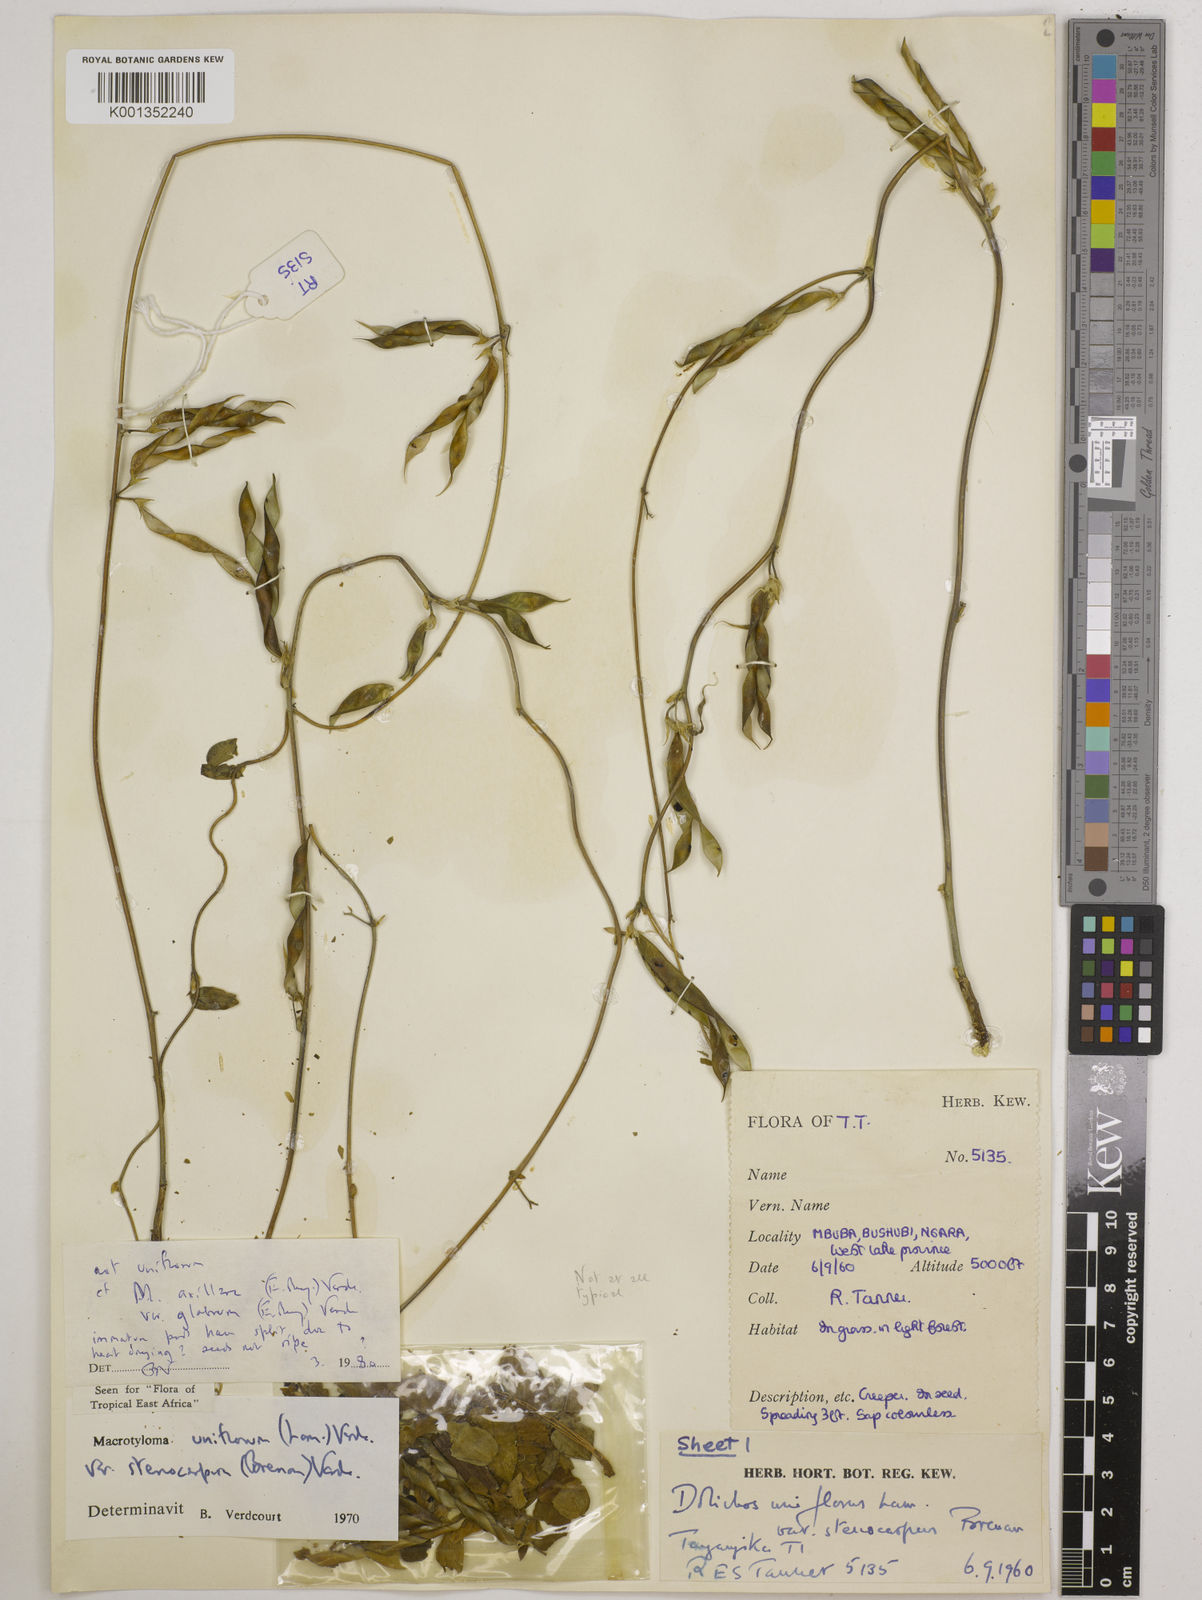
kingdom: Plantae
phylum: Tracheophyta
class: Magnoliopsida
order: Fabales
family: Fabaceae
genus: Macrotyloma
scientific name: Macrotyloma
